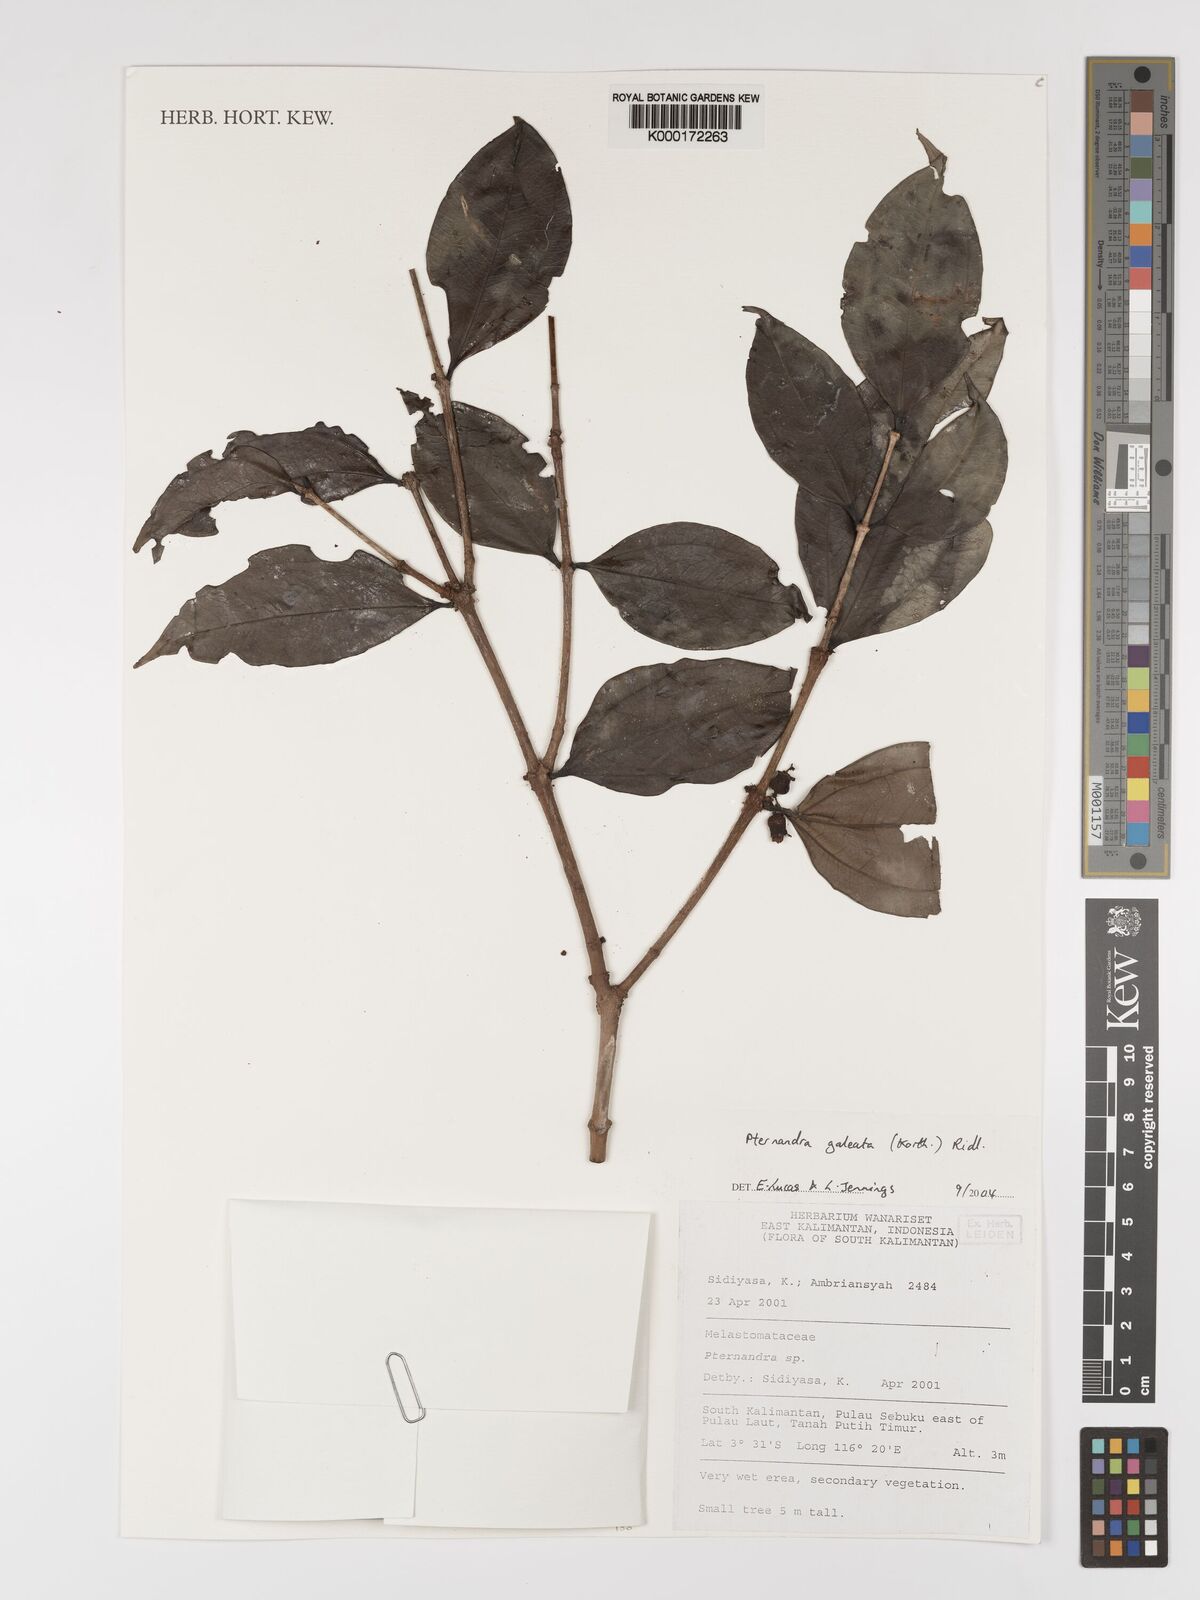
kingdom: Plantae
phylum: Tracheophyta
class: Magnoliopsida
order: Myrtales
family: Melastomataceae
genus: Pternandra
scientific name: Pternandra galeata
